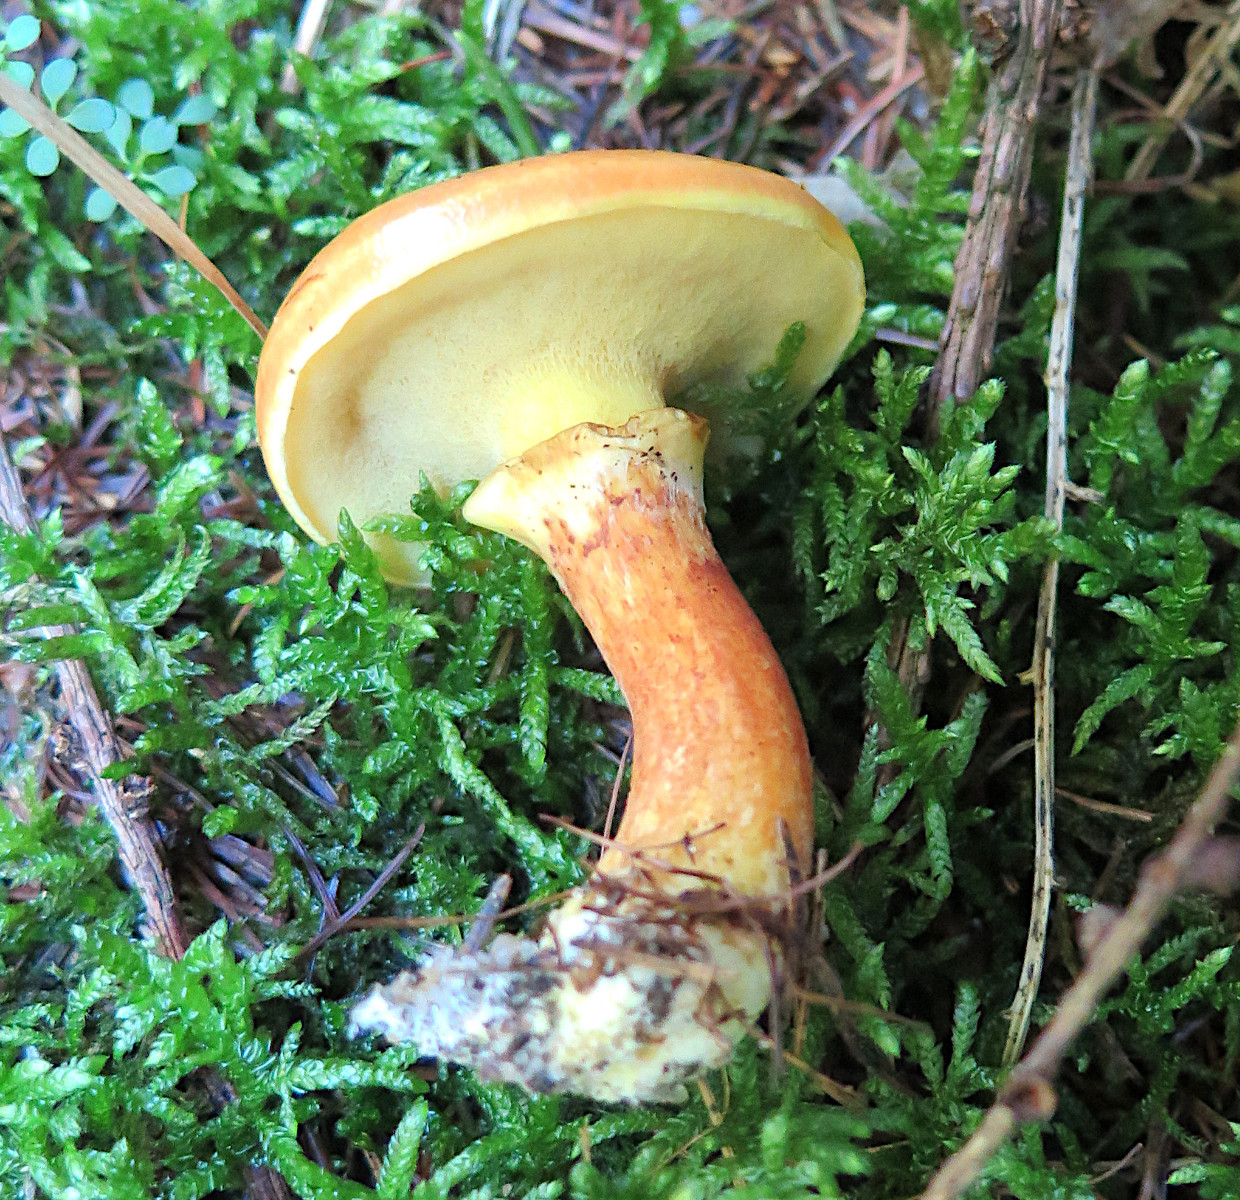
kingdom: Fungi
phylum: Basidiomycota
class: Agaricomycetes
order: Boletales
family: Suillaceae
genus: Suillus
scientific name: Suillus grevillei
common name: lærke-slimrørhat
